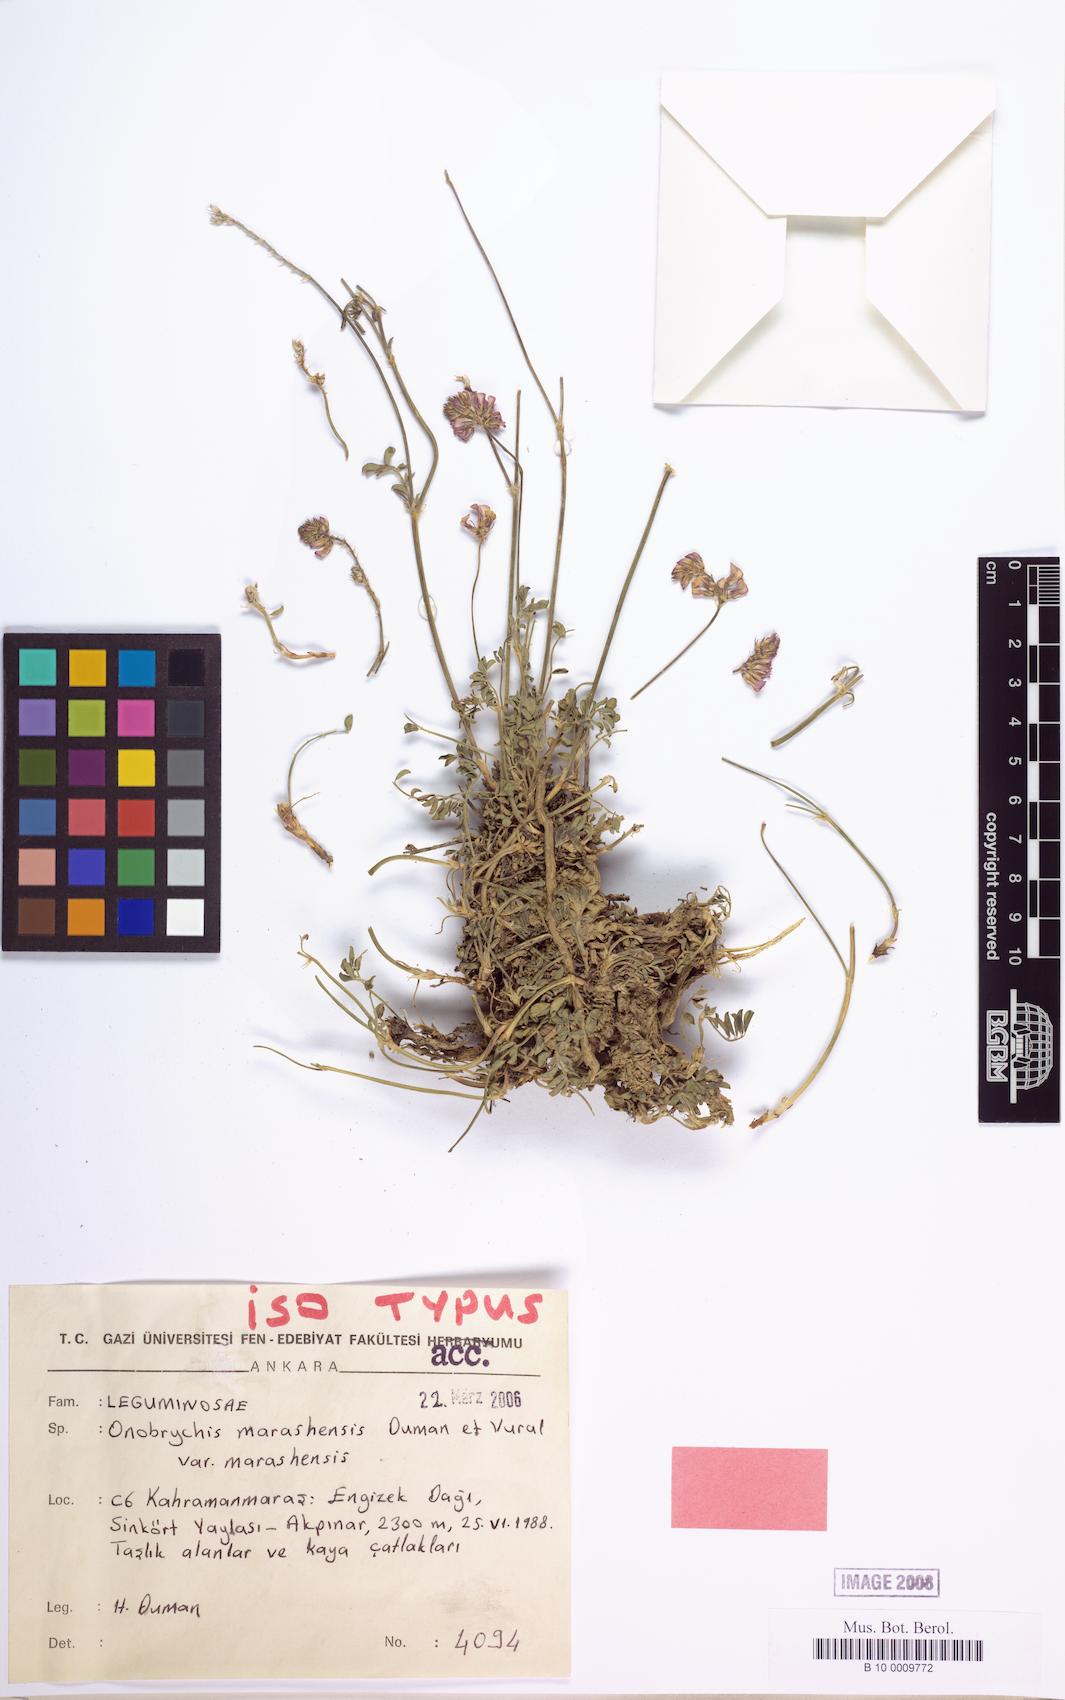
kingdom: Plantae
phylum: Tracheophyta
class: Magnoliopsida
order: Fabales
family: Fabaceae
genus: Onobrychis
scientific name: Onobrychis marashensis
